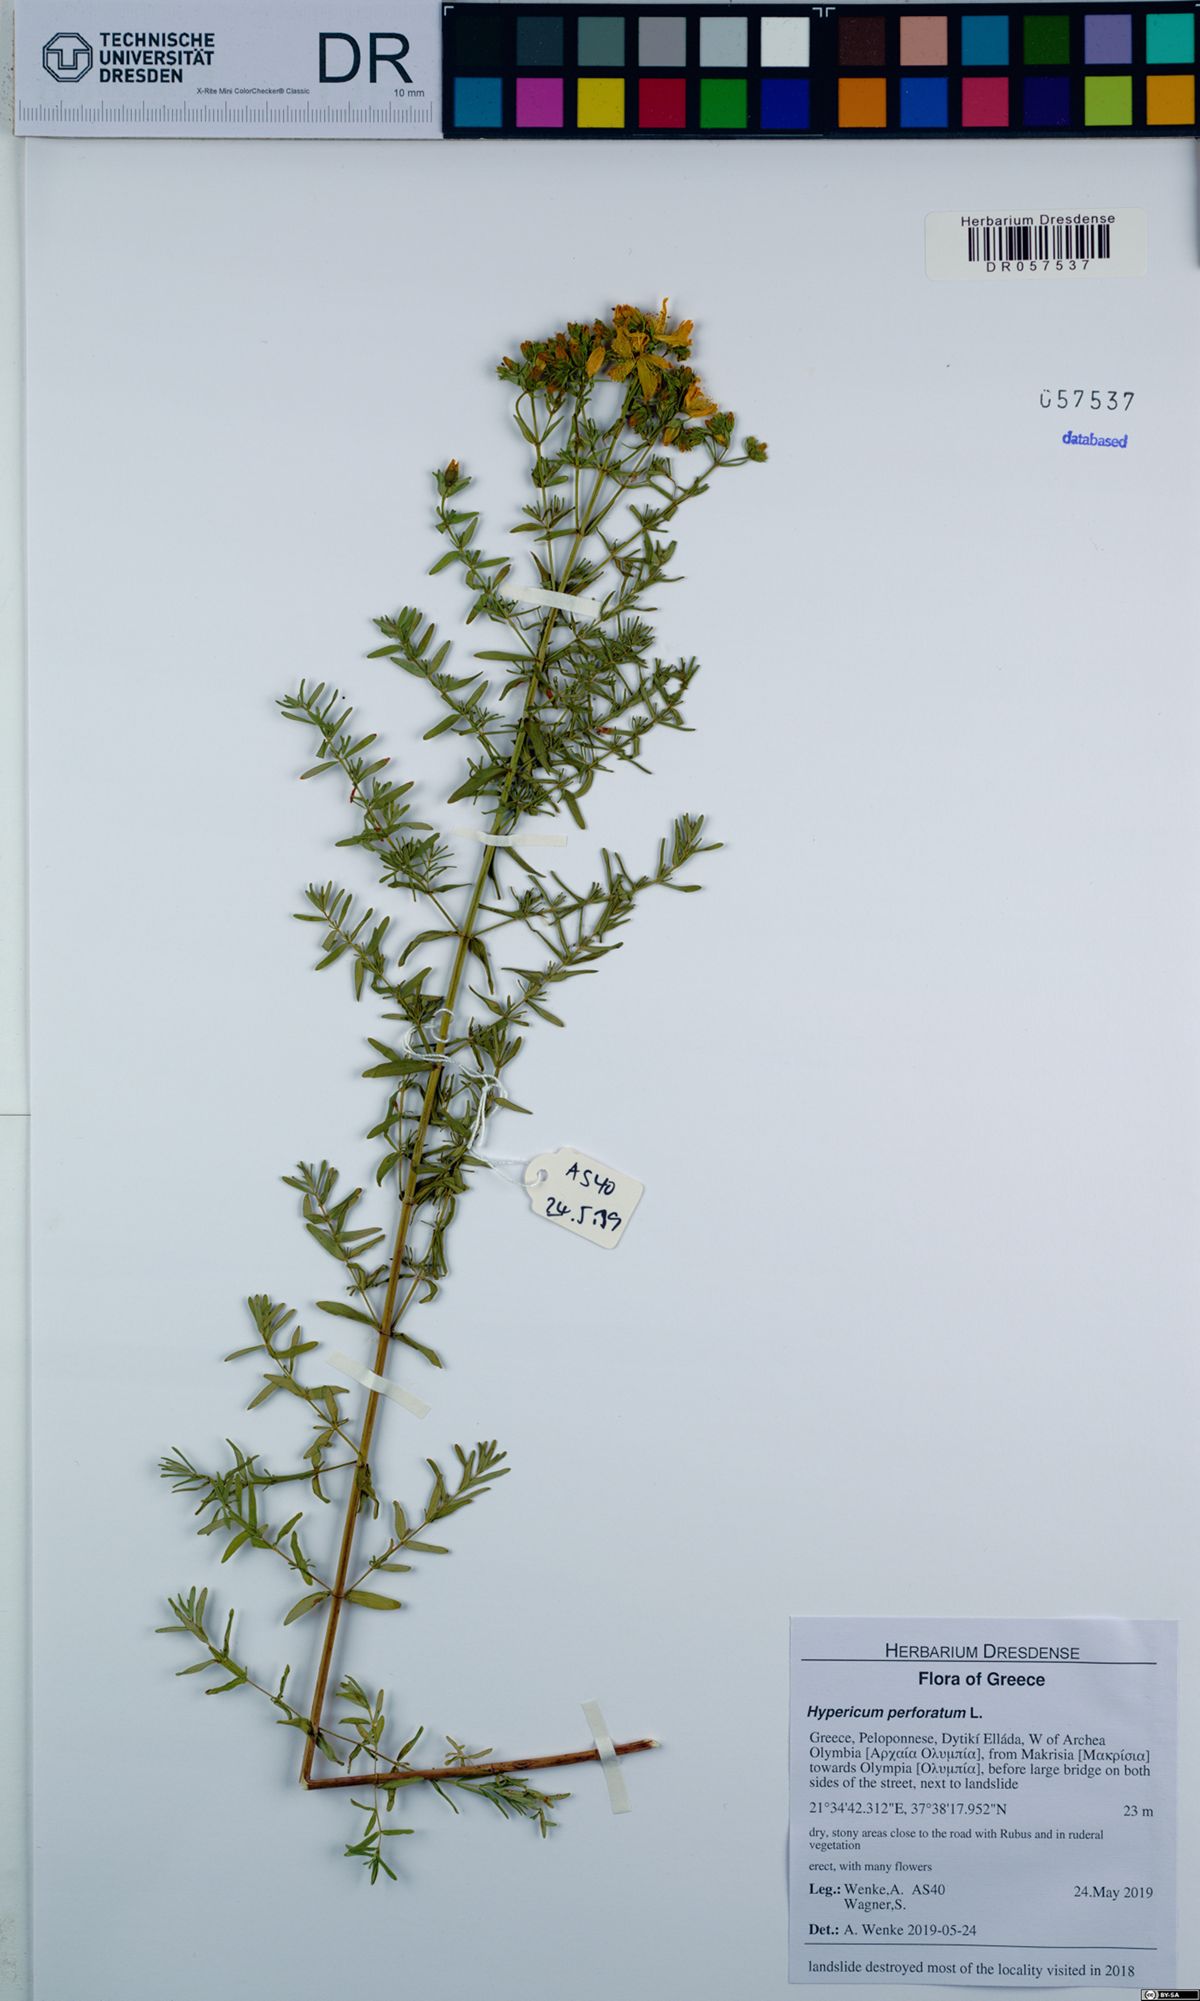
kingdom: Plantae
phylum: Tracheophyta
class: Magnoliopsida
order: Malpighiales
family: Hypericaceae
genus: Hypericum
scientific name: Hypericum perforatum
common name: Common st. johnswort
